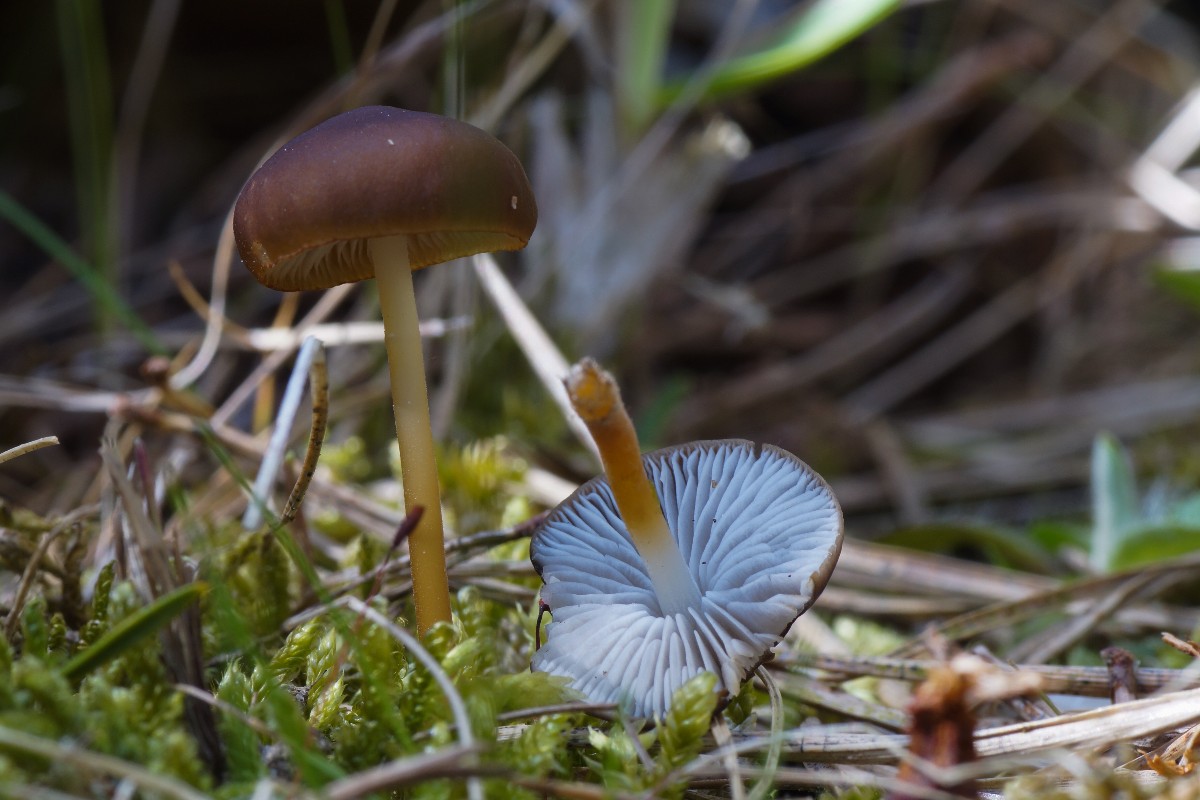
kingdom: Fungi
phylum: Basidiomycota
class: Agaricomycetes
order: Agaricales
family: Physalacriaceae
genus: Strobilurus
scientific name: Strobilurus
